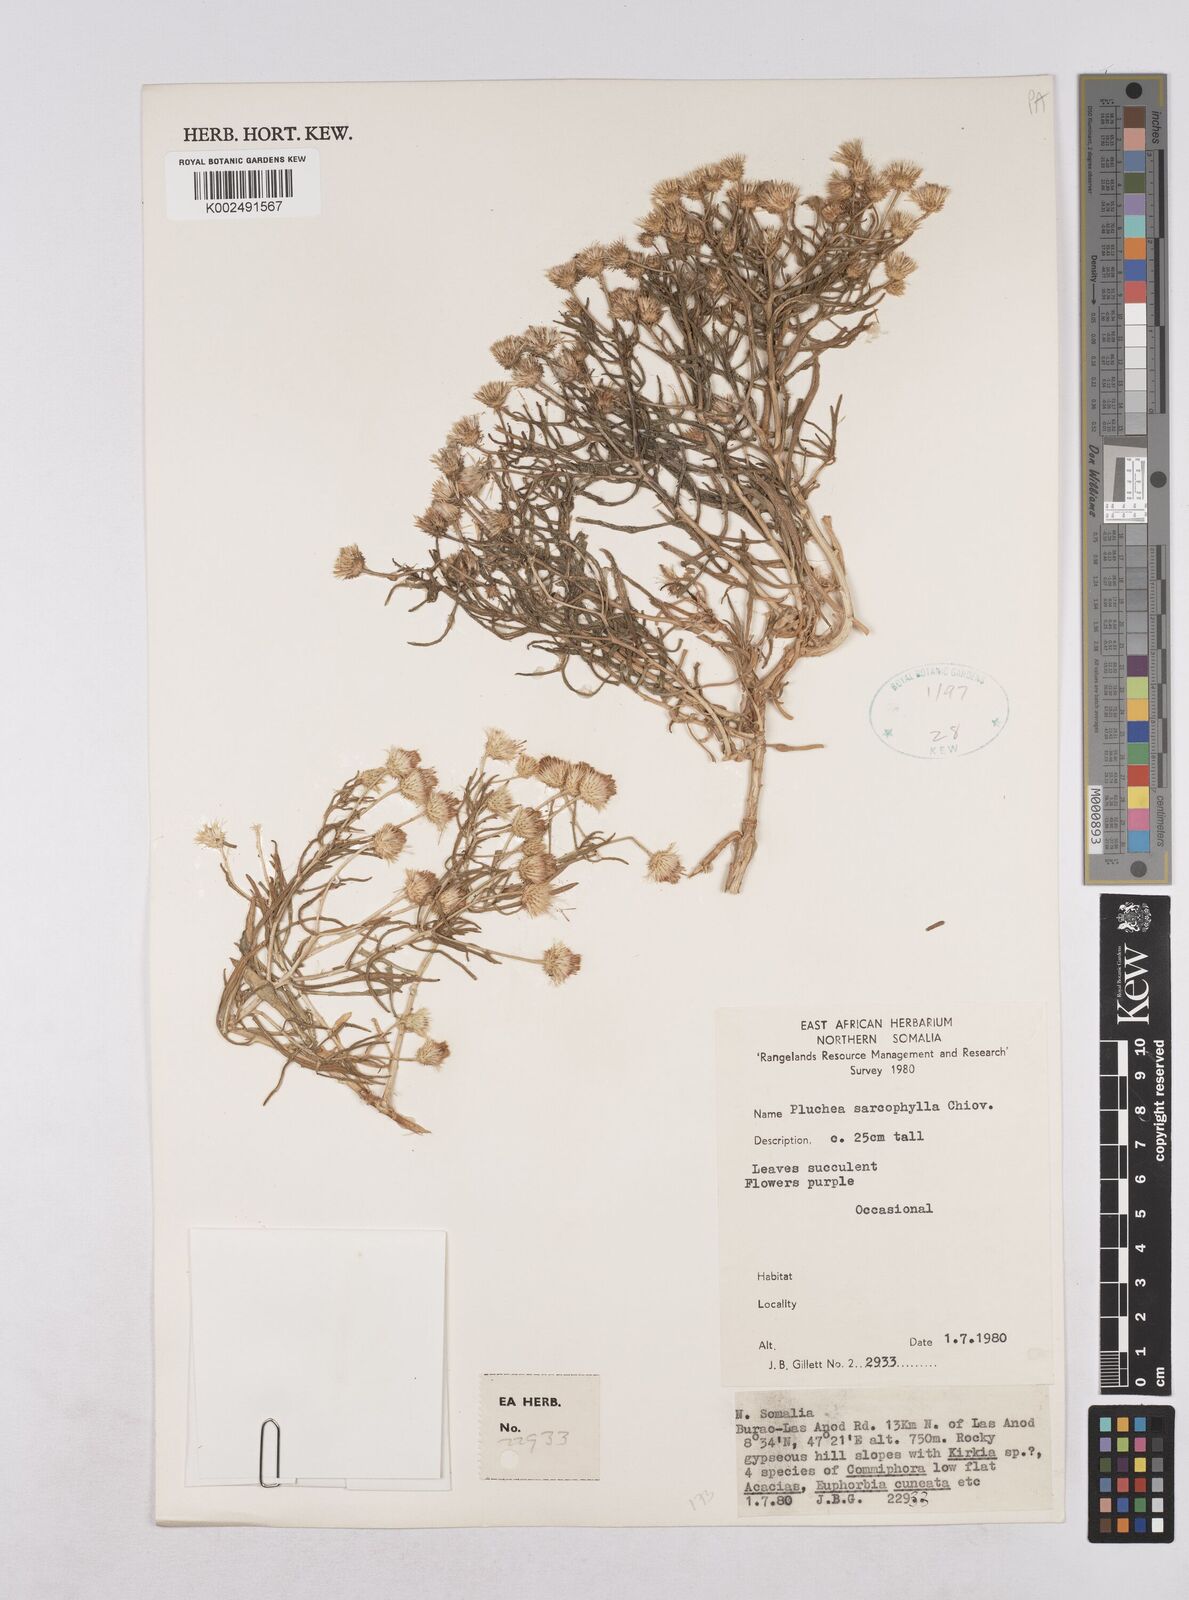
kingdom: Plantae
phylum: Tracheophyta
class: Magnoliopsida
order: Asterales
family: Asteraceae
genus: Pluchea
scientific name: Pluchea sarcophylla
